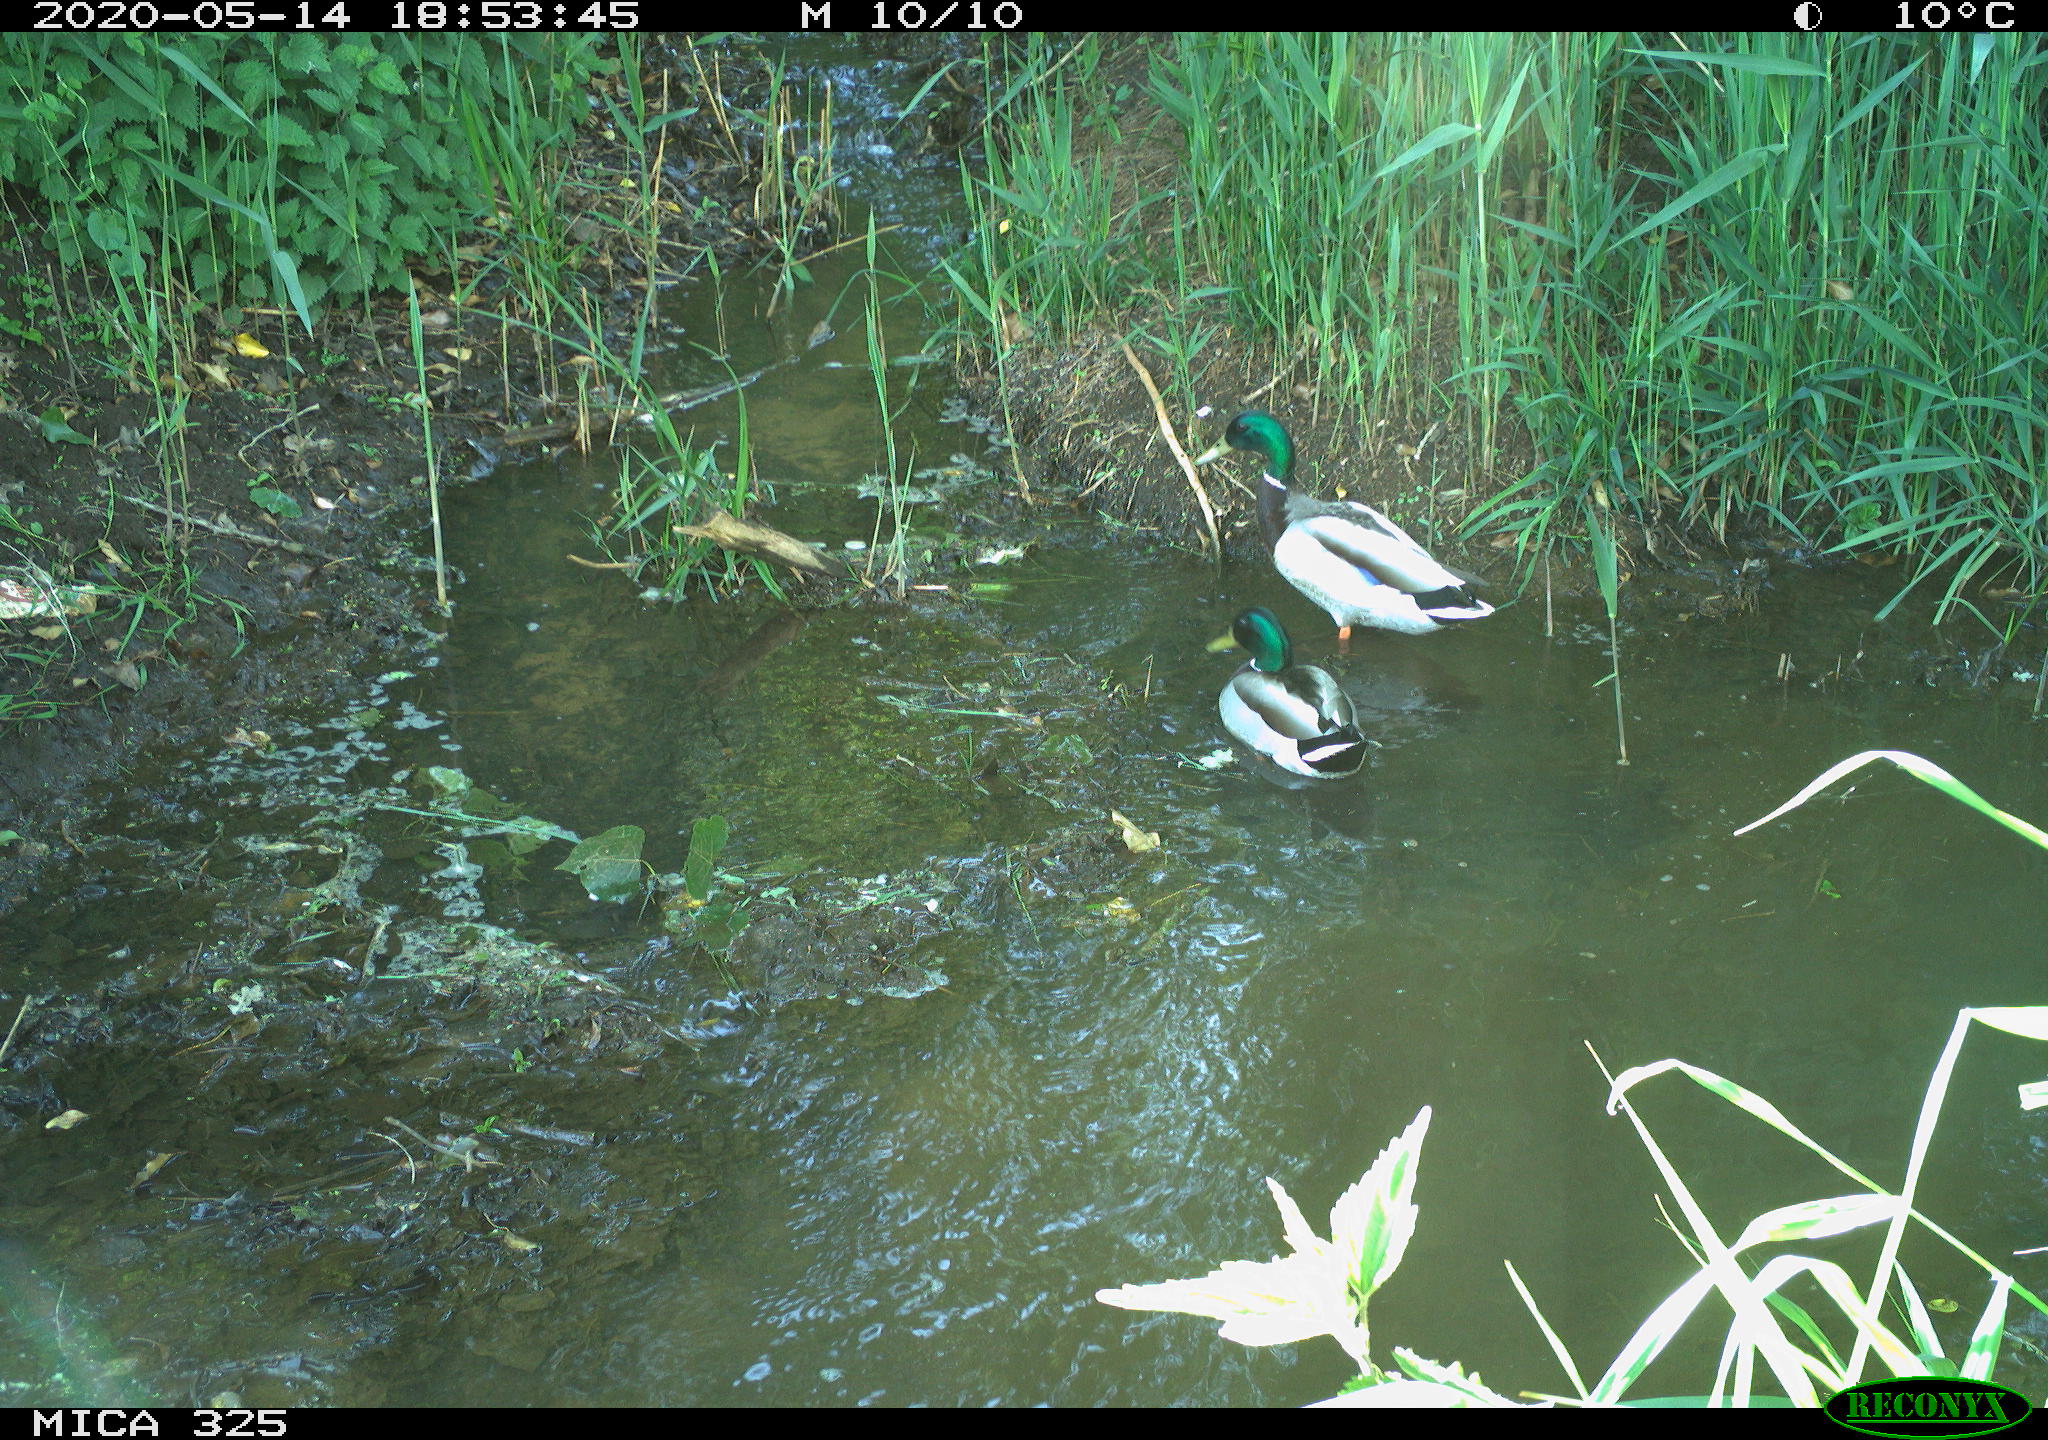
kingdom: Animalia
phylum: Chordata
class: Aves
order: Anseriformes
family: Anatidae
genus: Anas
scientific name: Anas platyrhynchos
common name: Mallard
